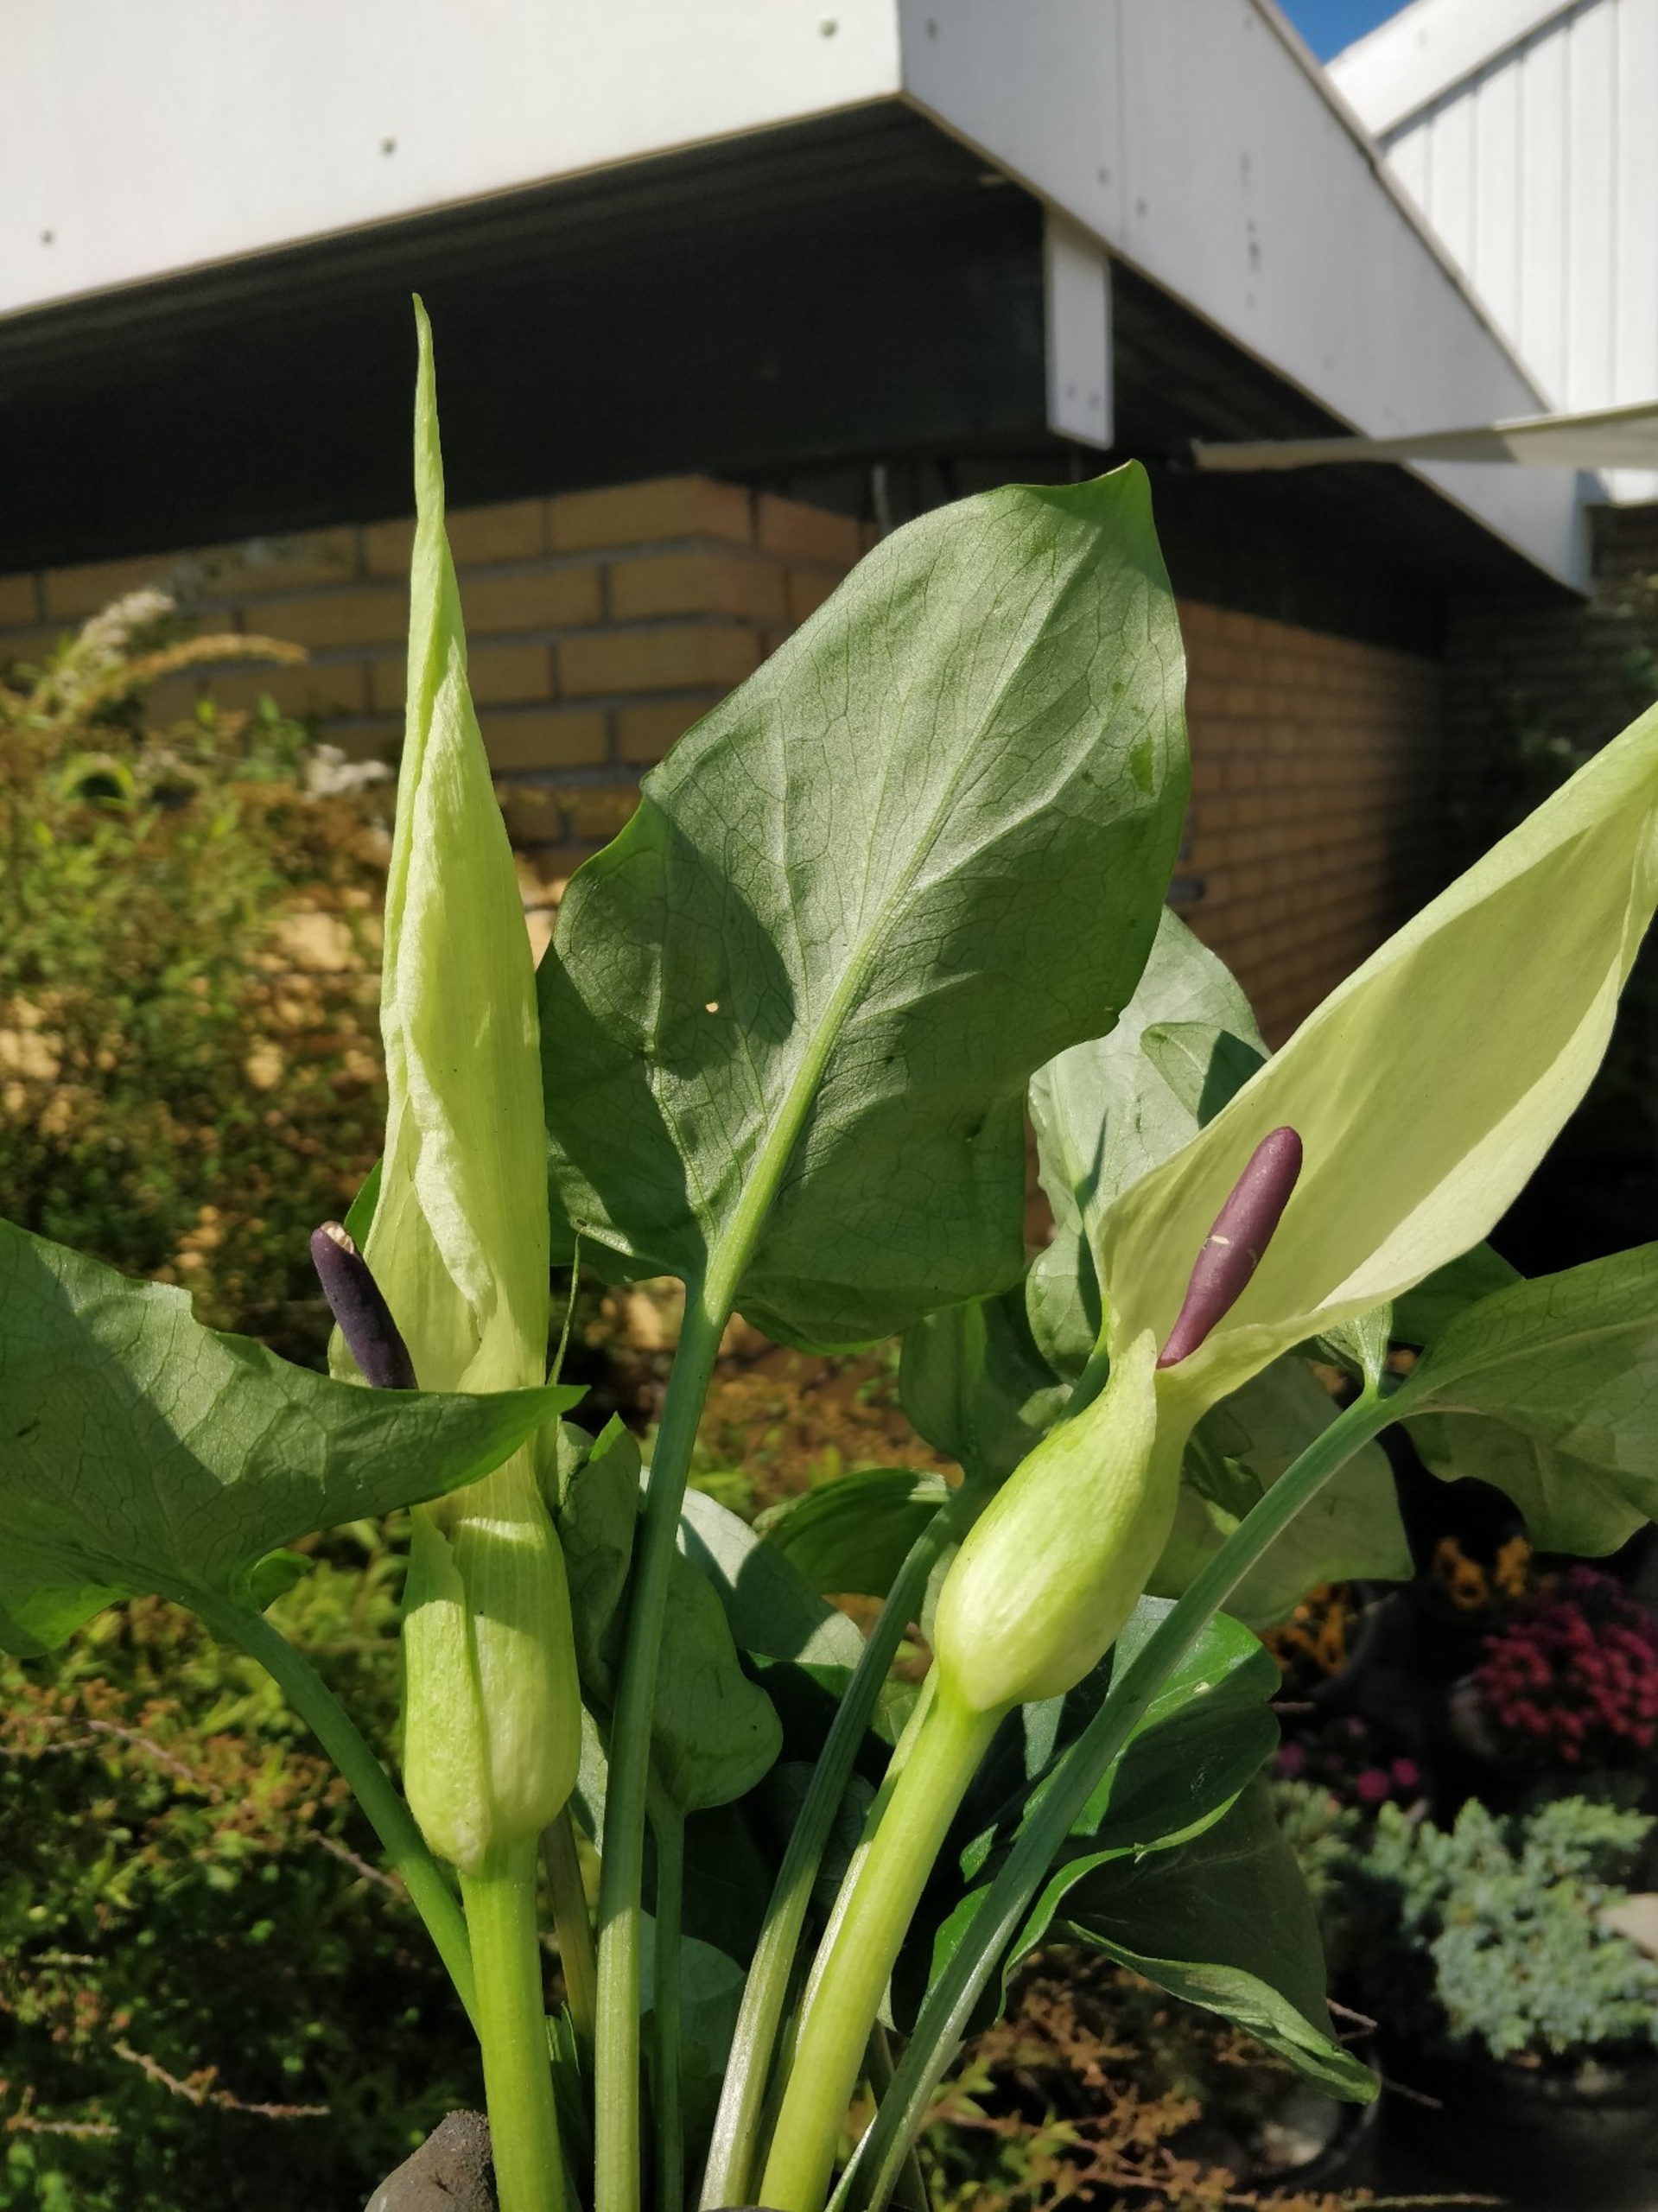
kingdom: Plantae
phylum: Tracheophyta
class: Liliopsida
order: Alismatales
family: Araceae
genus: Arum
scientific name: Arum maculatum
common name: Plettet arum
